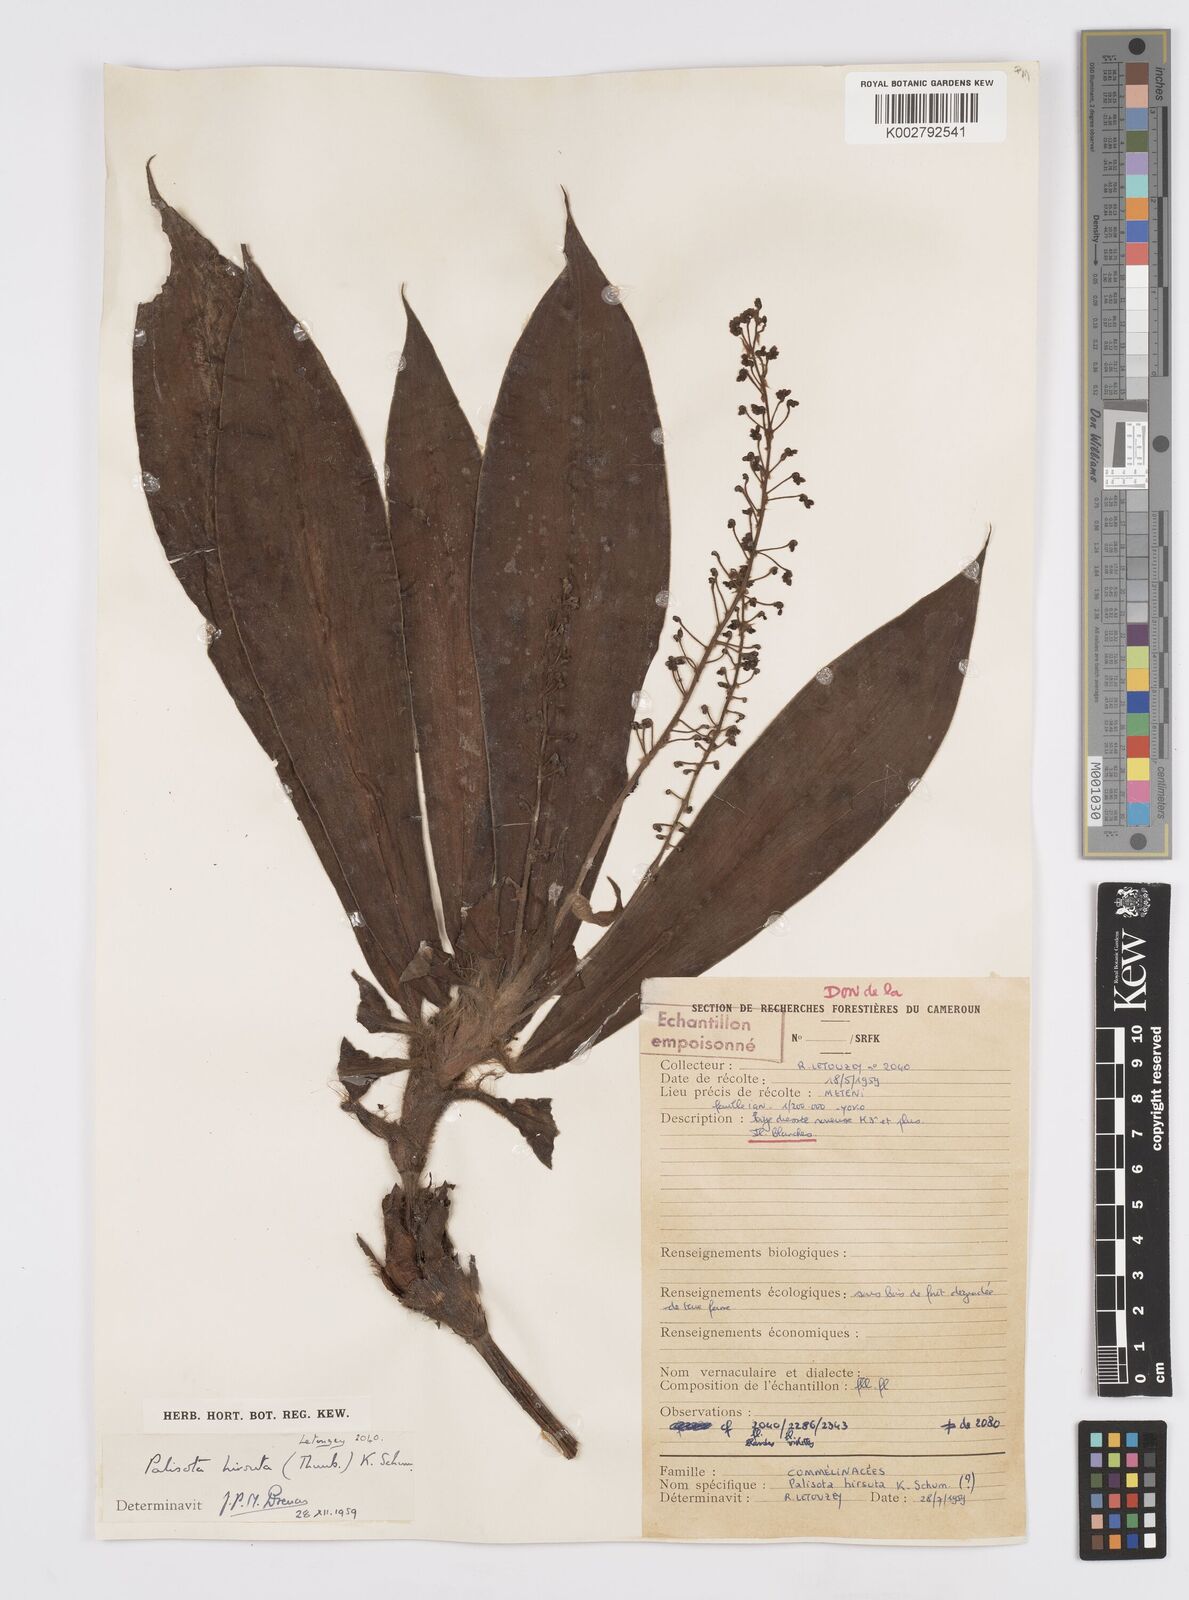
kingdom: Plantae
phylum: Tracheophyta
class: Liliopsida
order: Commelinales
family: Commelinaceae
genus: Palisota
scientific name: Palisota hirsuta
